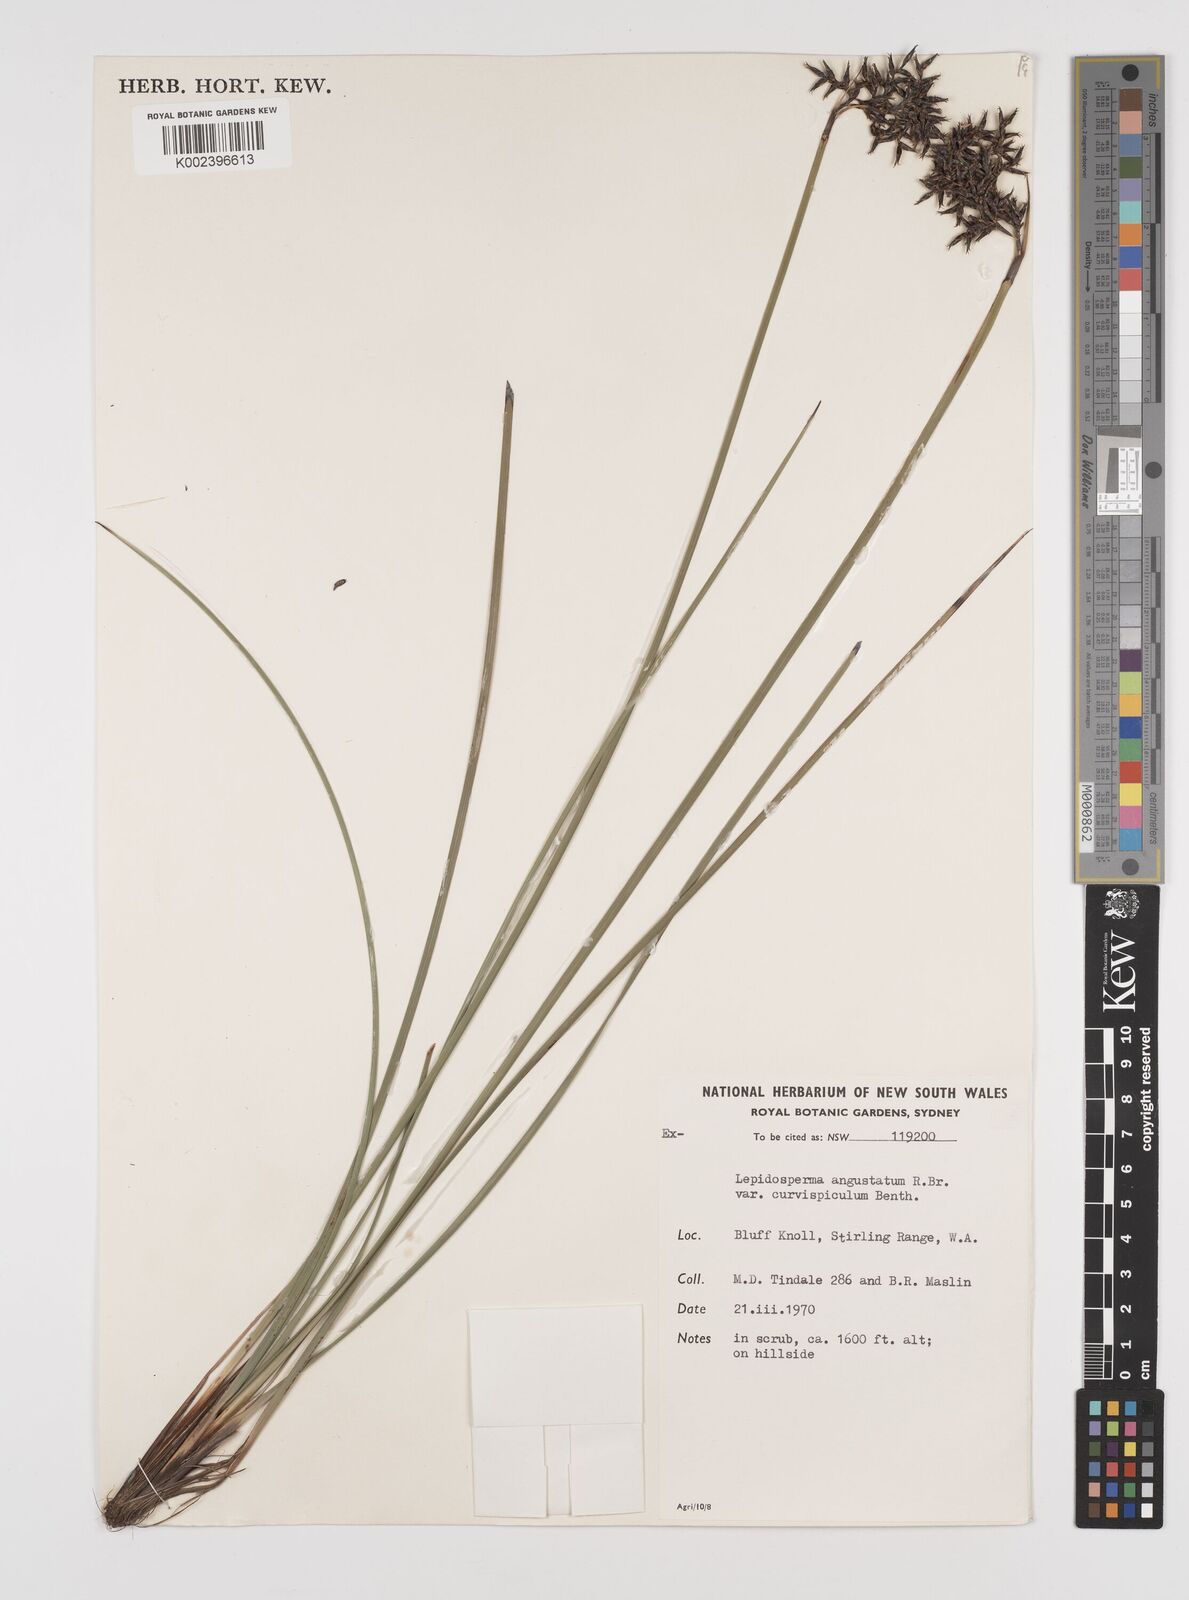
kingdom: Plantae
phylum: Tracheophyta
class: Liliopsida
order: Poales
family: Cyperaceae
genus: Lepidosperma
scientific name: Lepidosperma angustatum
